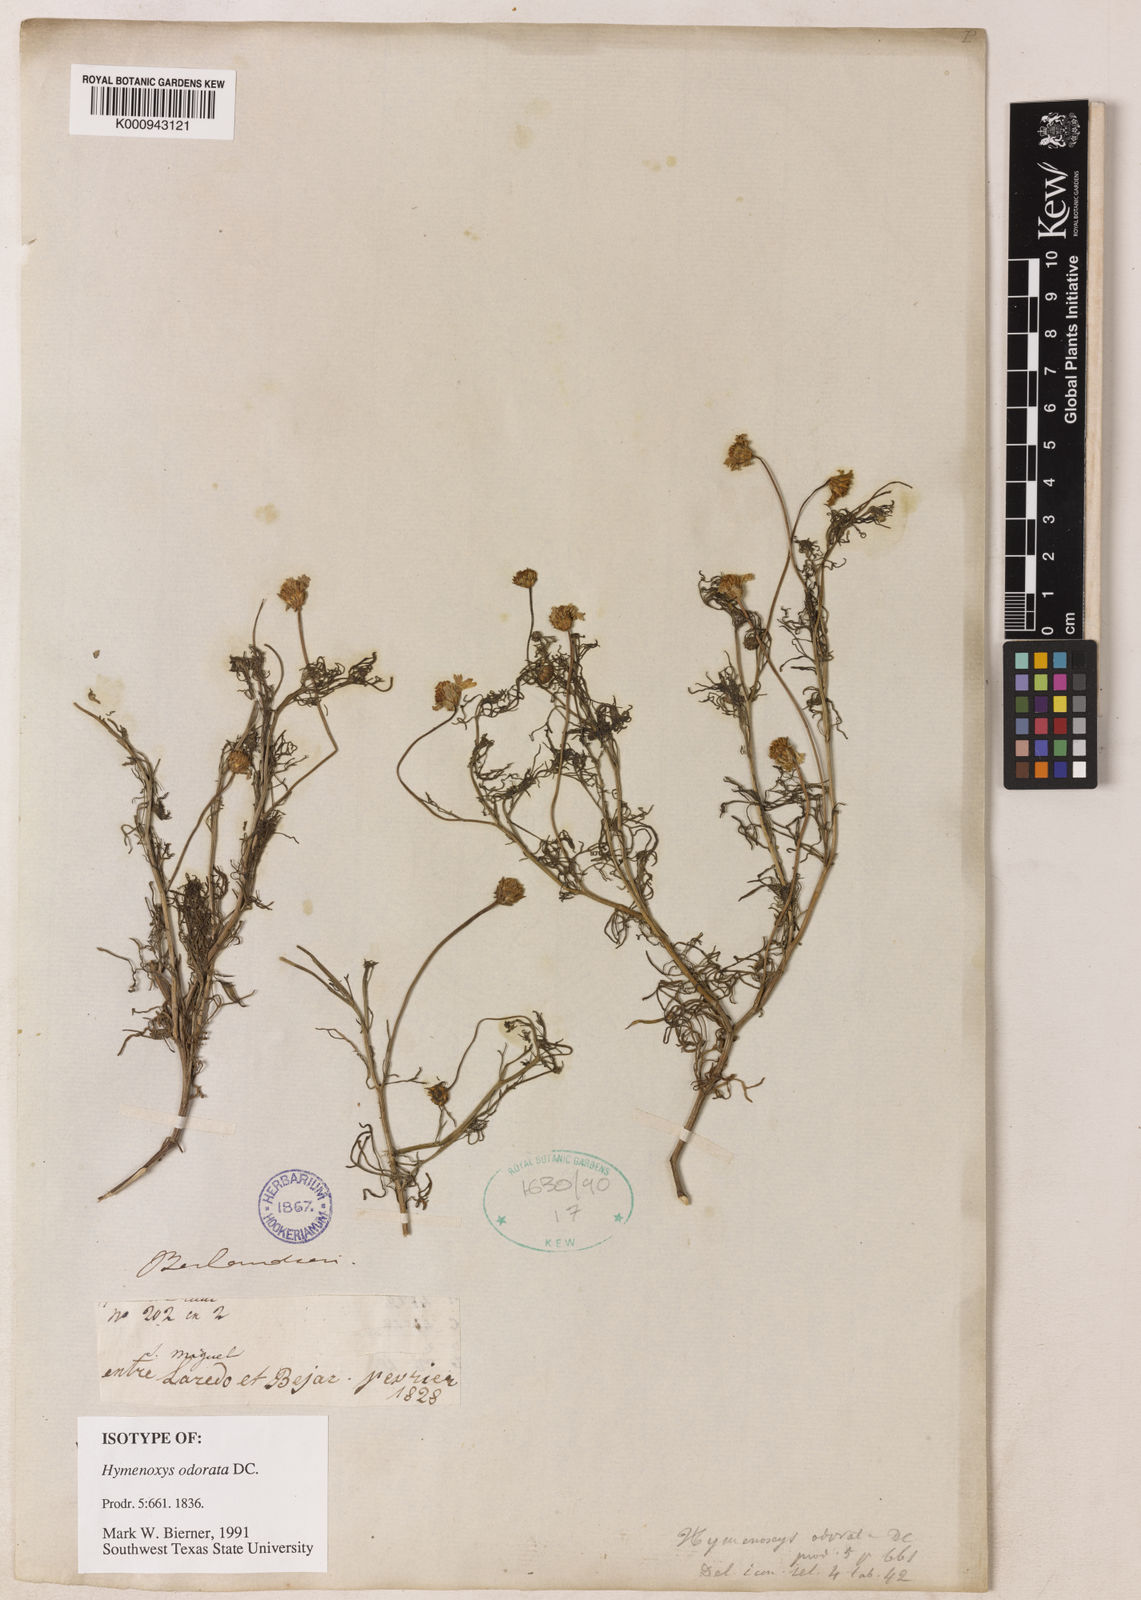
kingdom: Plantae
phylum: Tracheophyta
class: Magnoliopsida
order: Asterales
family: Asteraceae
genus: Hymenoxys
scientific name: Hymenoxys odorata
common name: Bitter rubberweed
